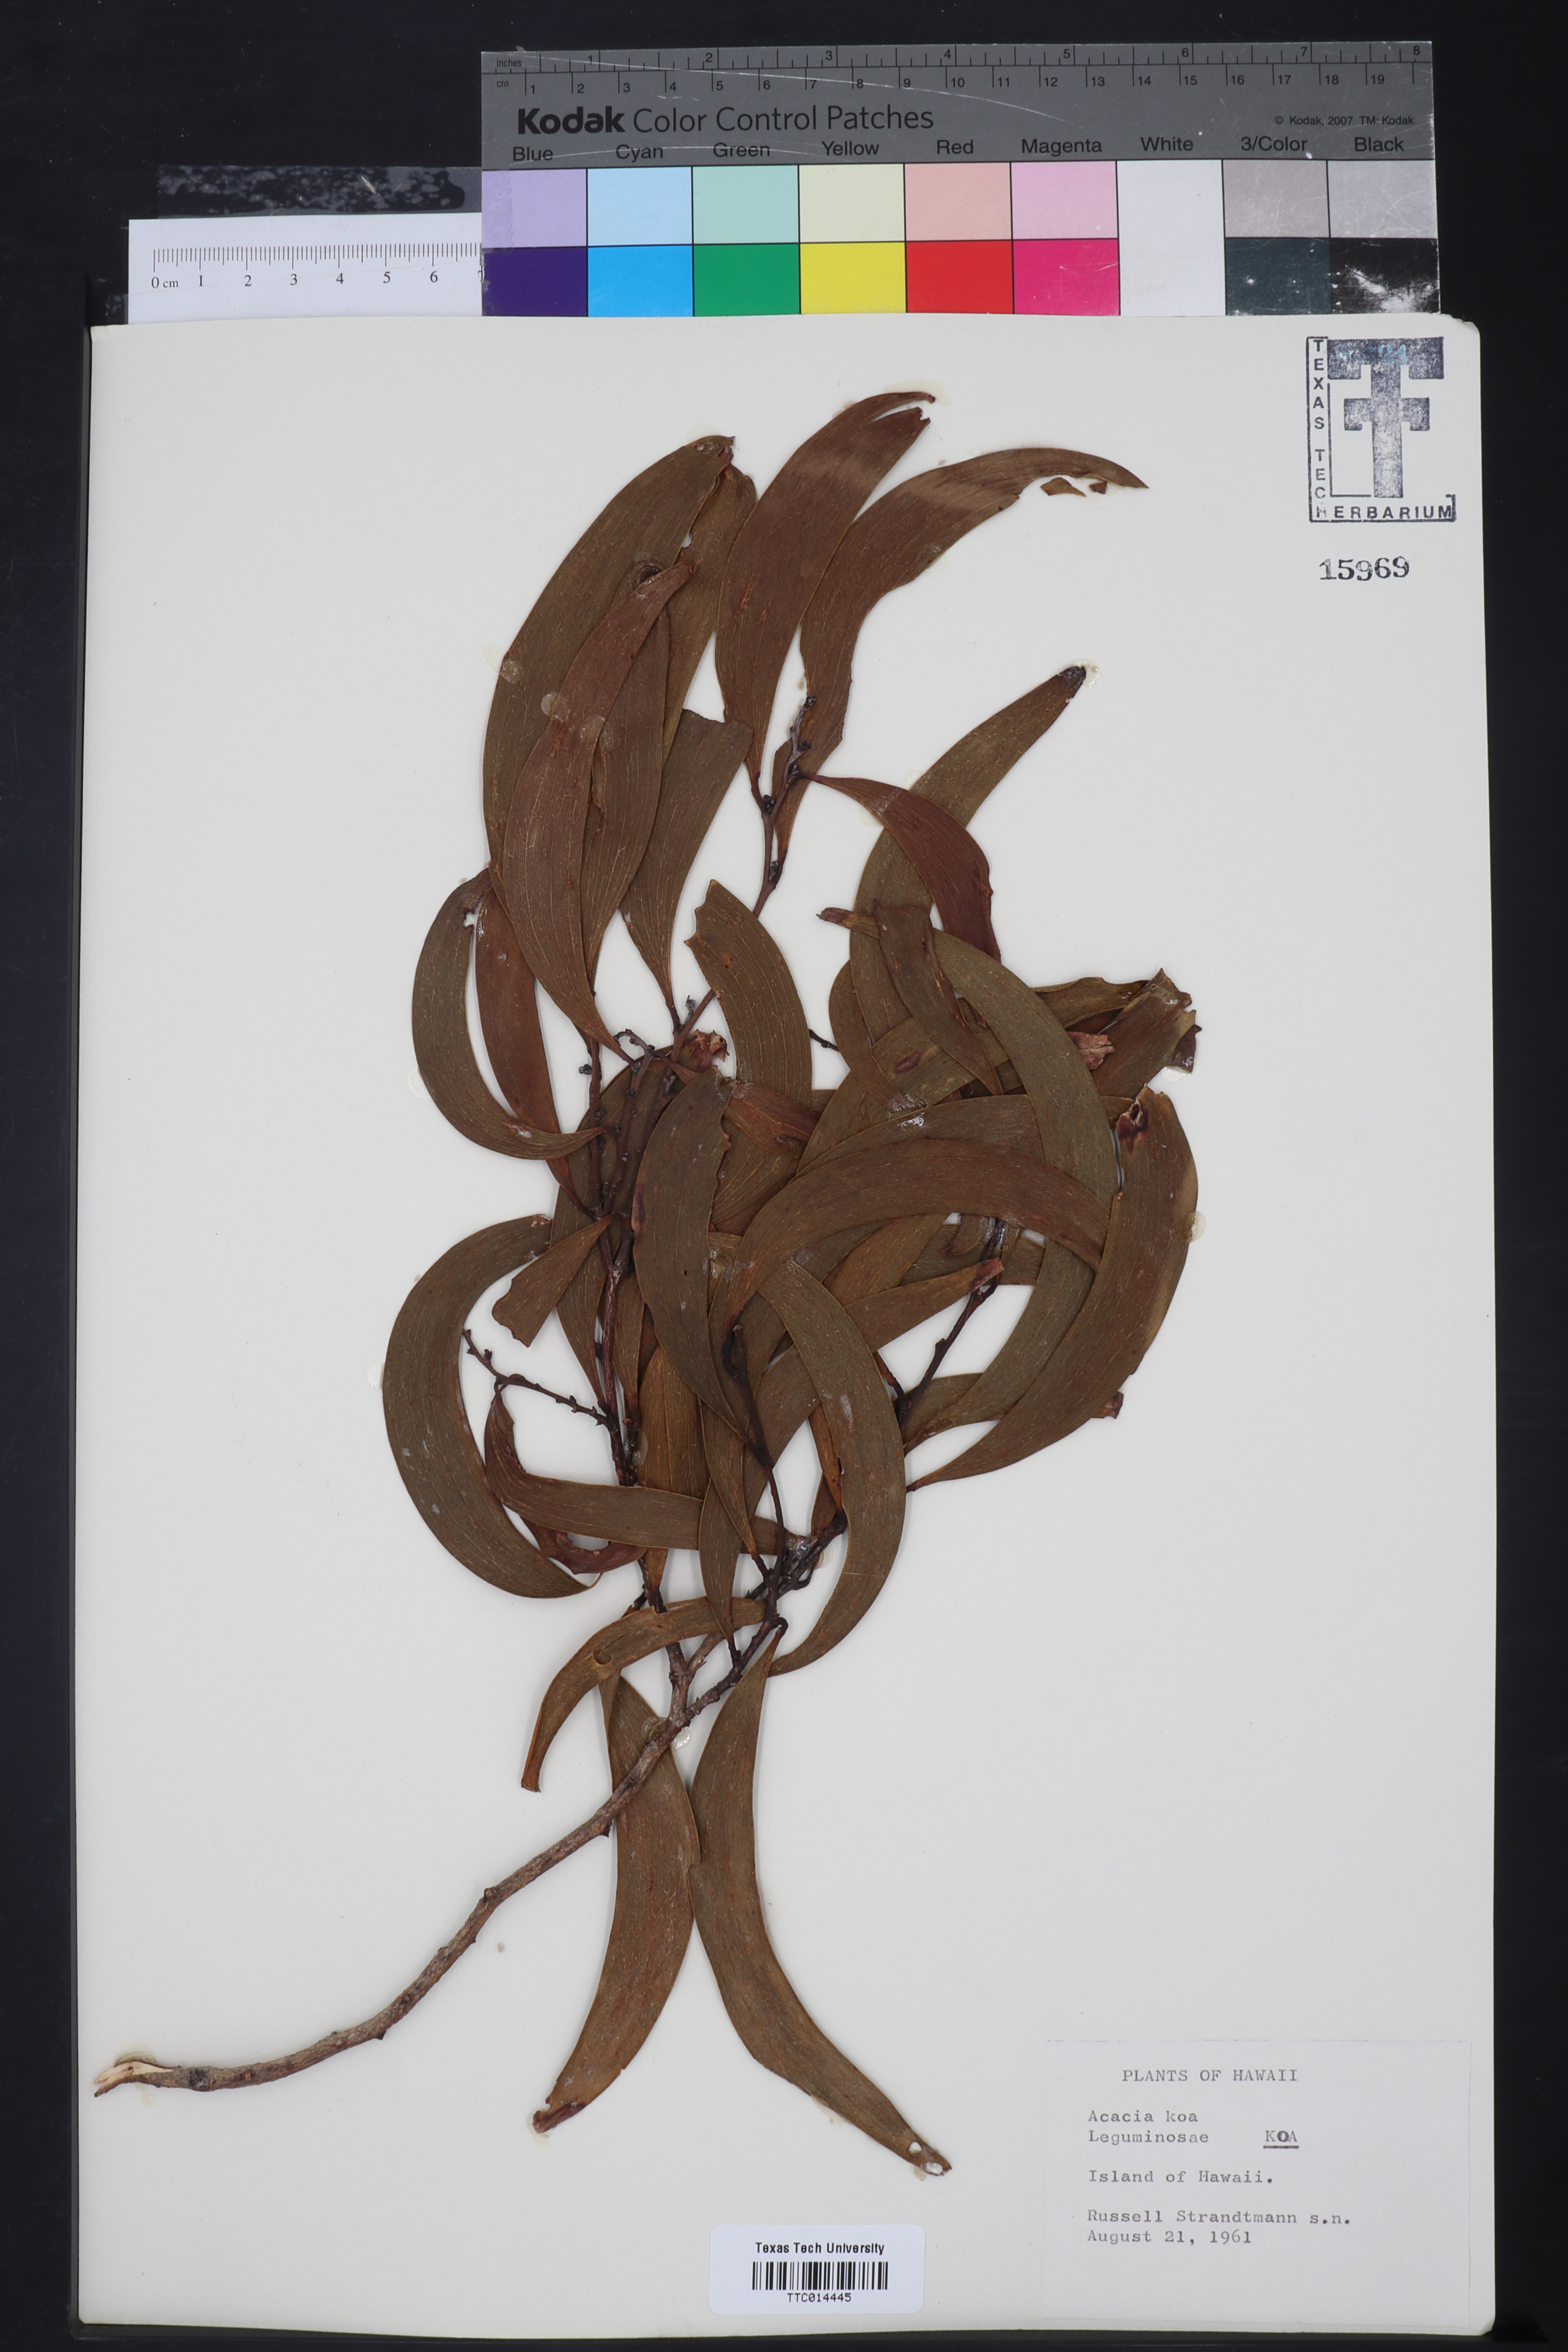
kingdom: Plantae
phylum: Tracheophyta
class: Magnoliopsida
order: Fabales
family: Fabaceae
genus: Acacia
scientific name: Acacia koa
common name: Gray koa
